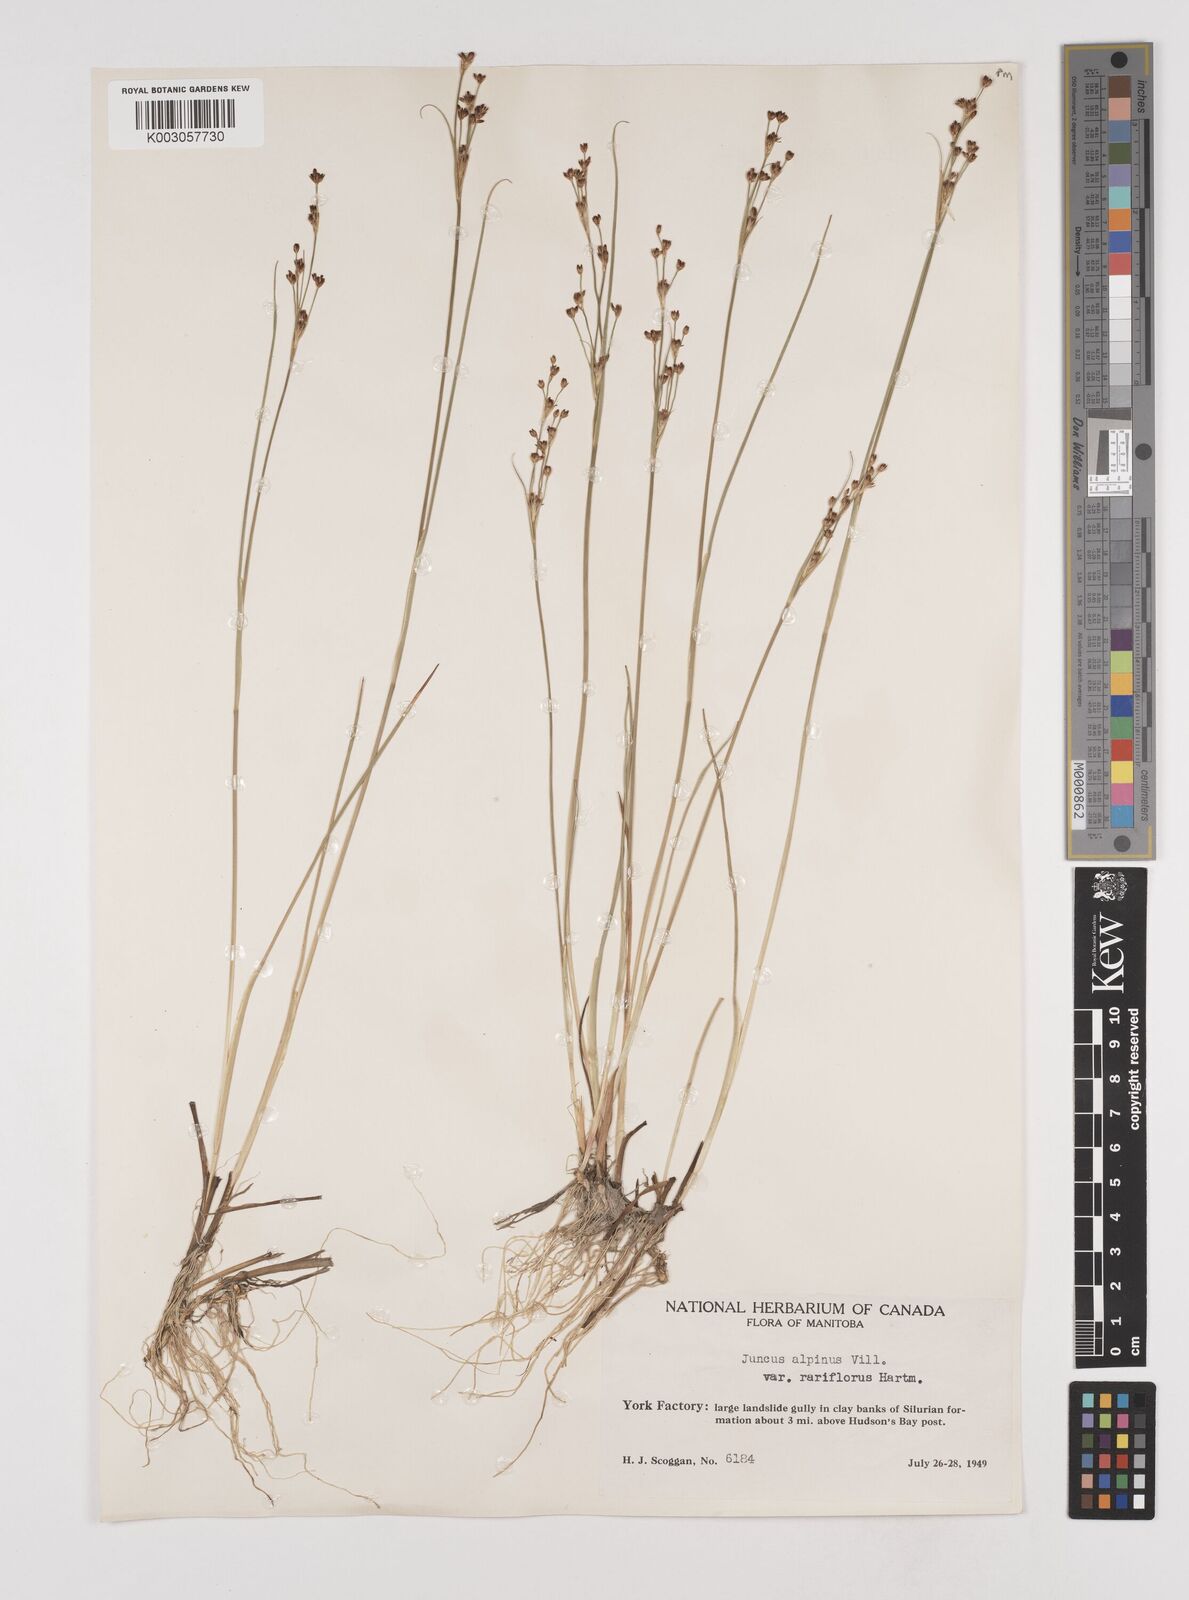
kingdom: Plantae
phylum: Tracheophyta
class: Liliopsida
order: Poales
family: Juncaceae
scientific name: Juncaceae
